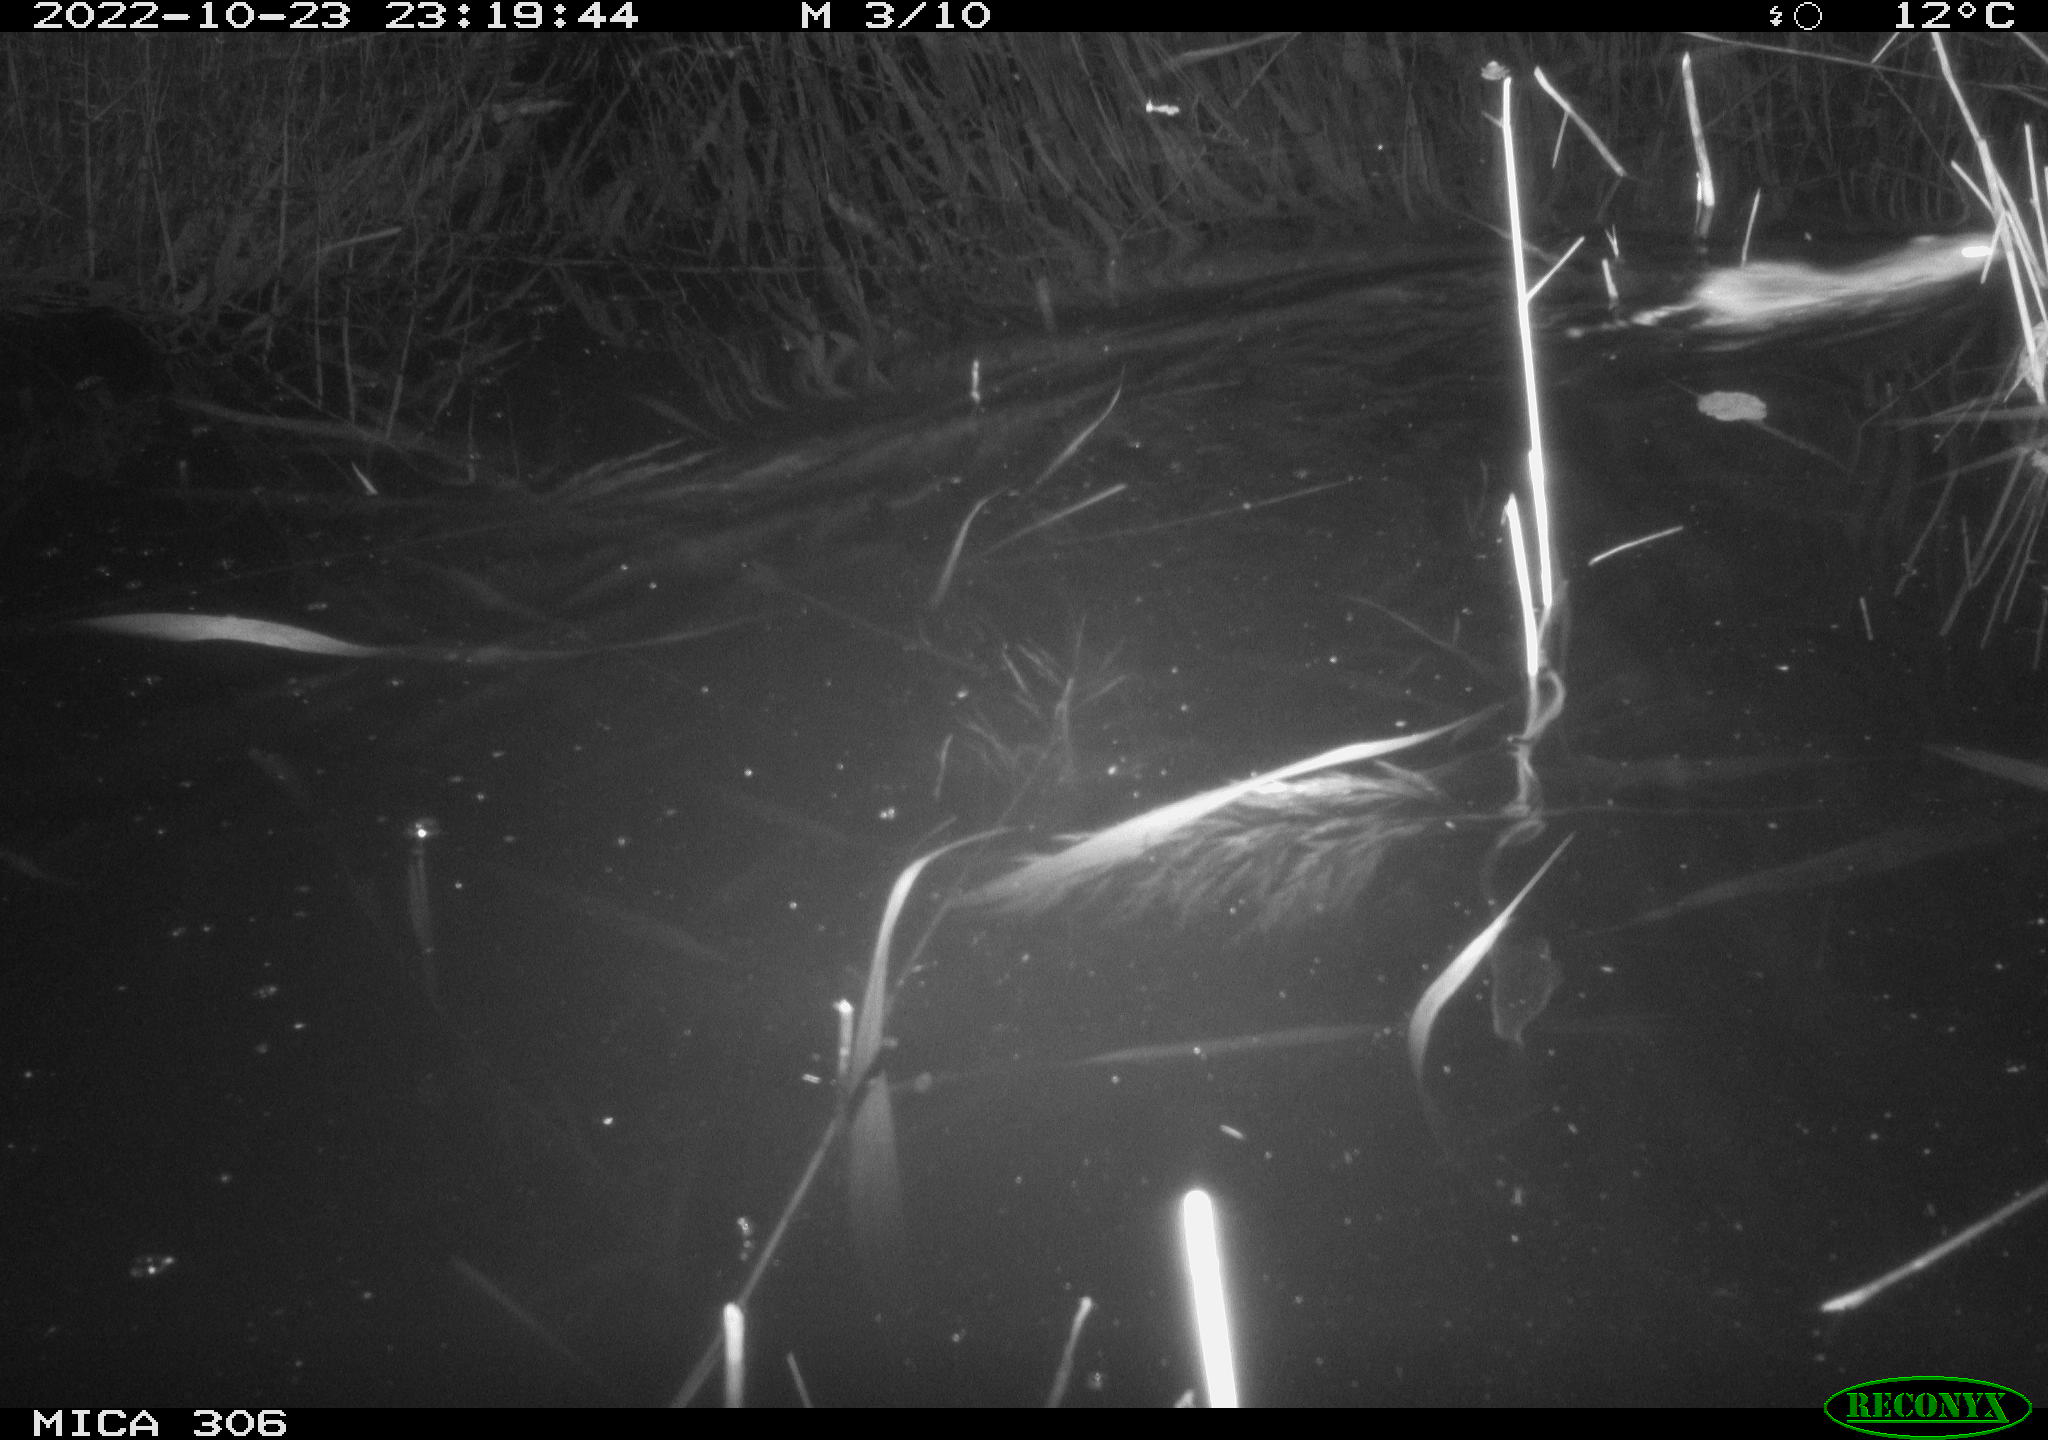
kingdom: Animalia
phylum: Chordata
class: Mammalia
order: Rodentia
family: Muridae
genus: Rattus
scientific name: Rattus norvegicus
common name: Brown rat
